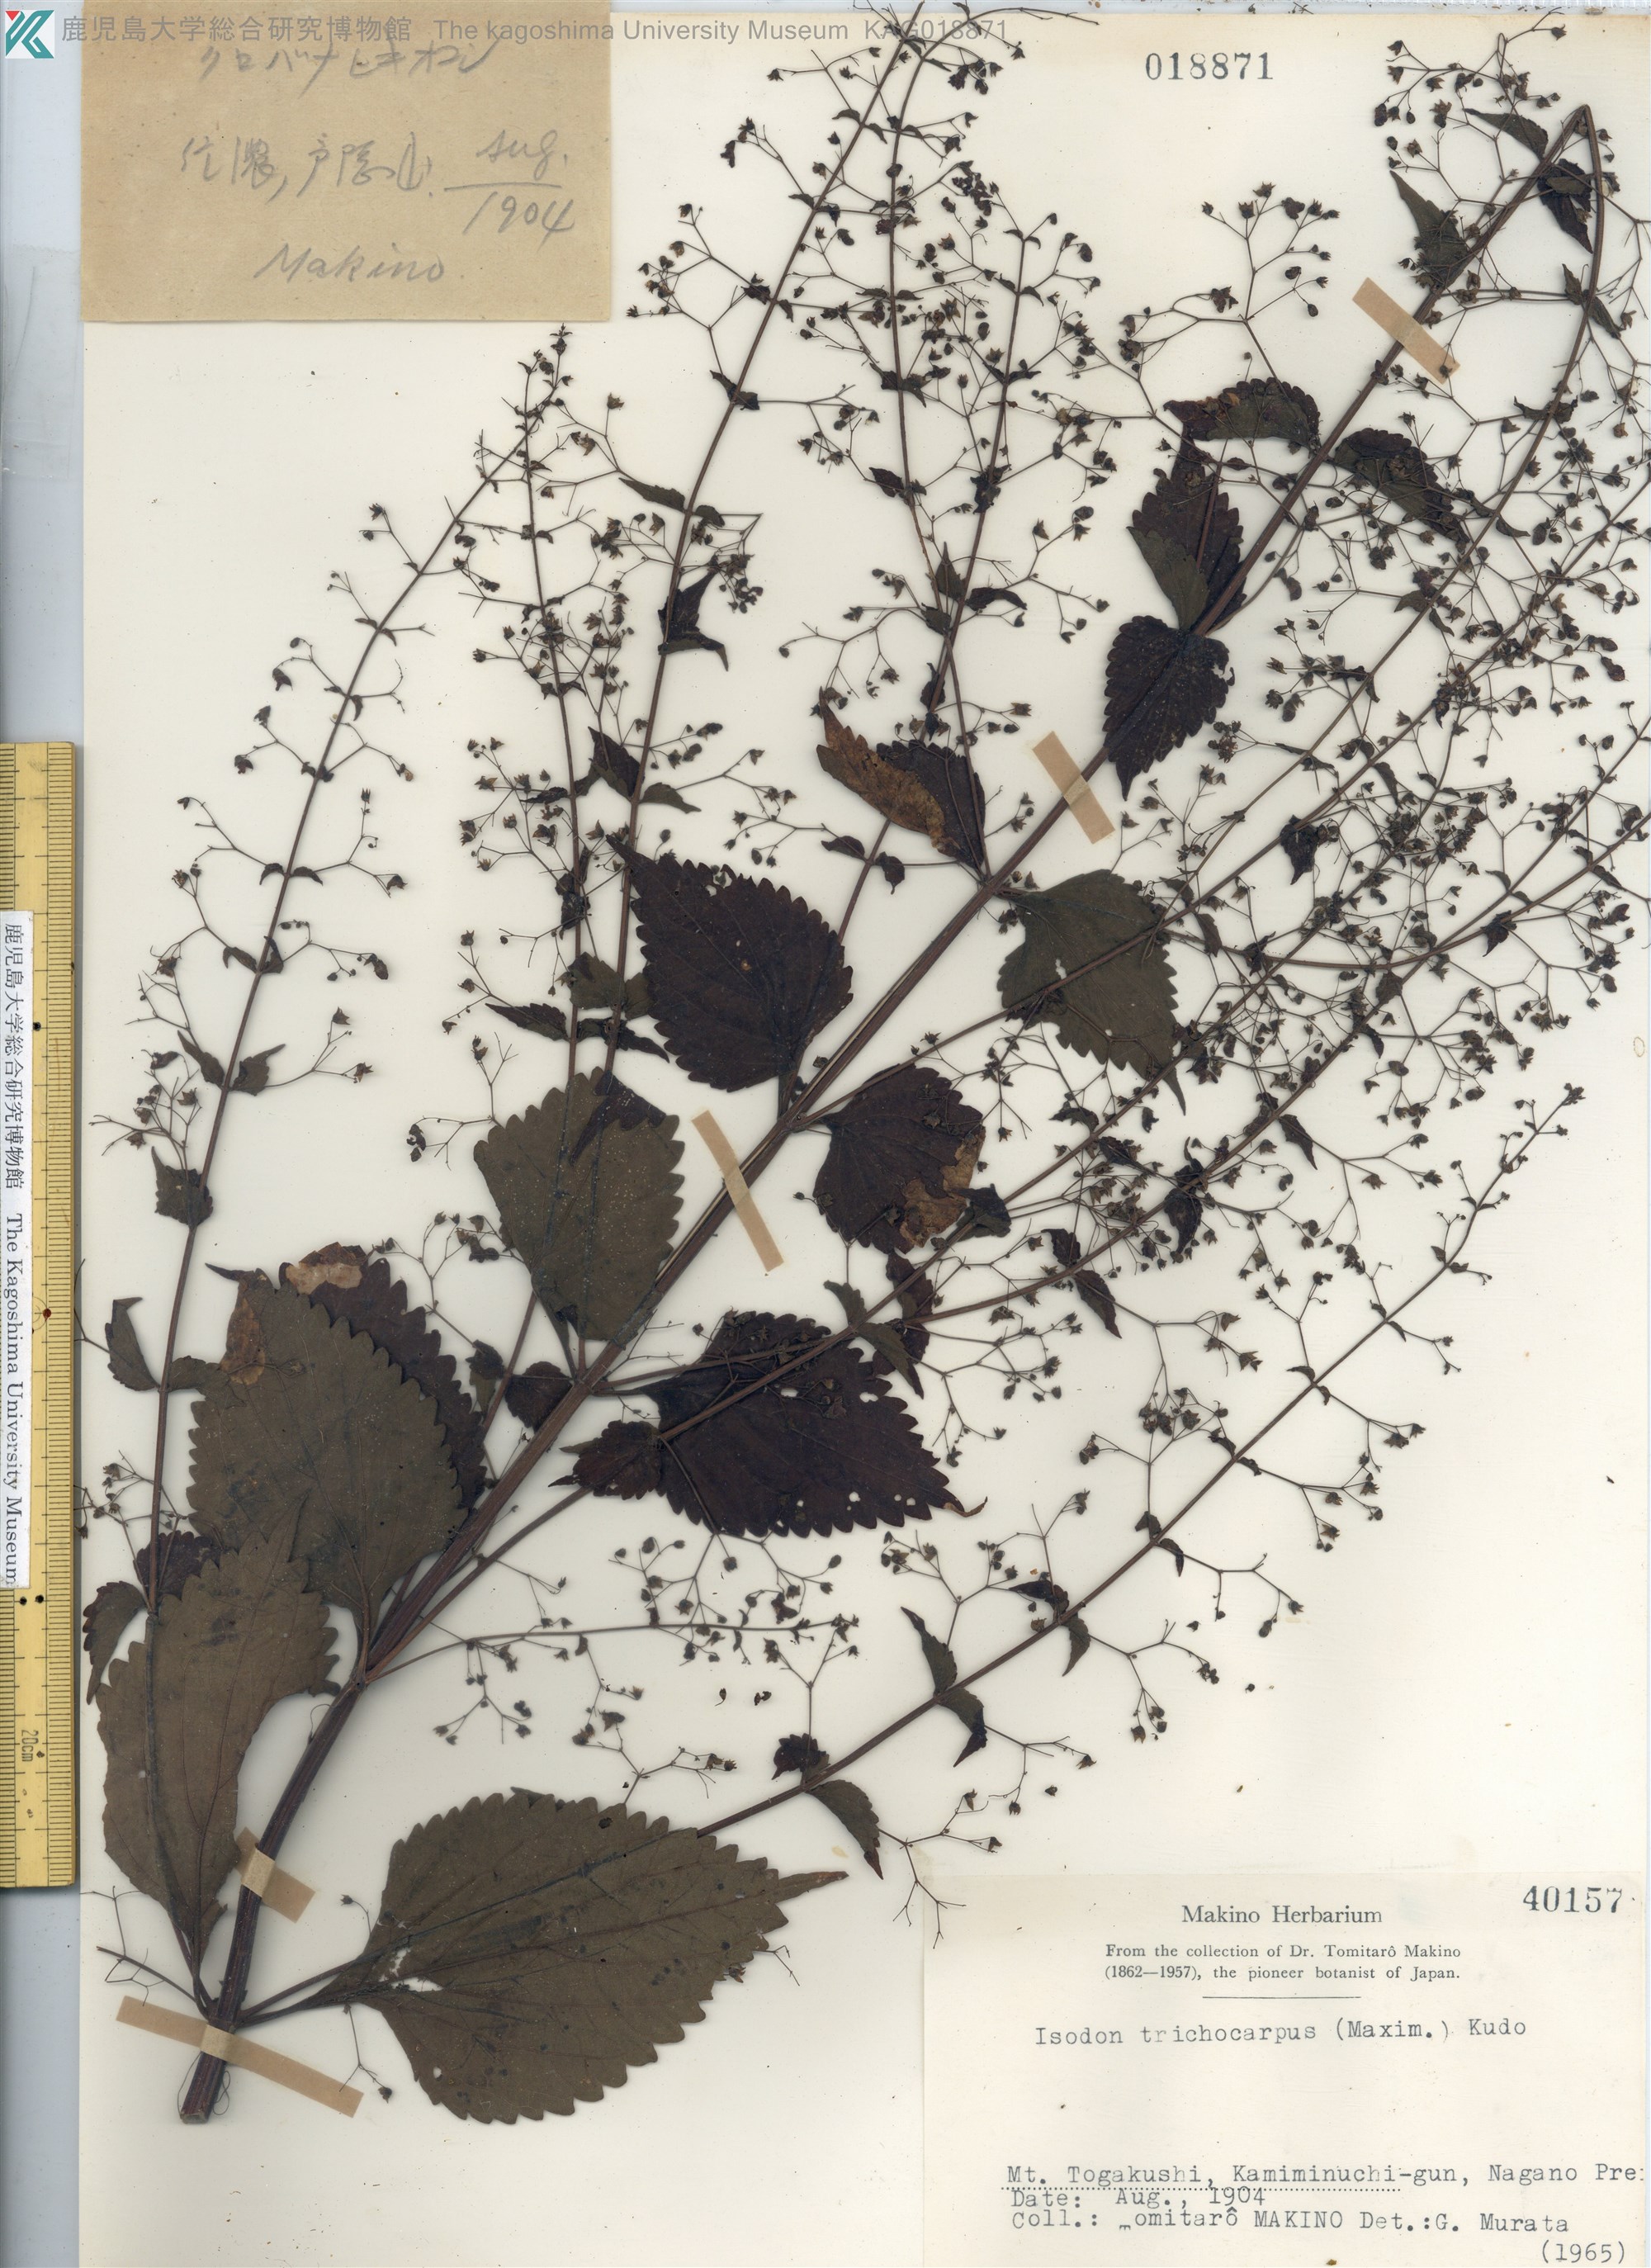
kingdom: Plantae
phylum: Tracheophyta
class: Magnoliopsida
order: Lamiales
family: Lamiaceae
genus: Isodon
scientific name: Isodon trichocarpus
